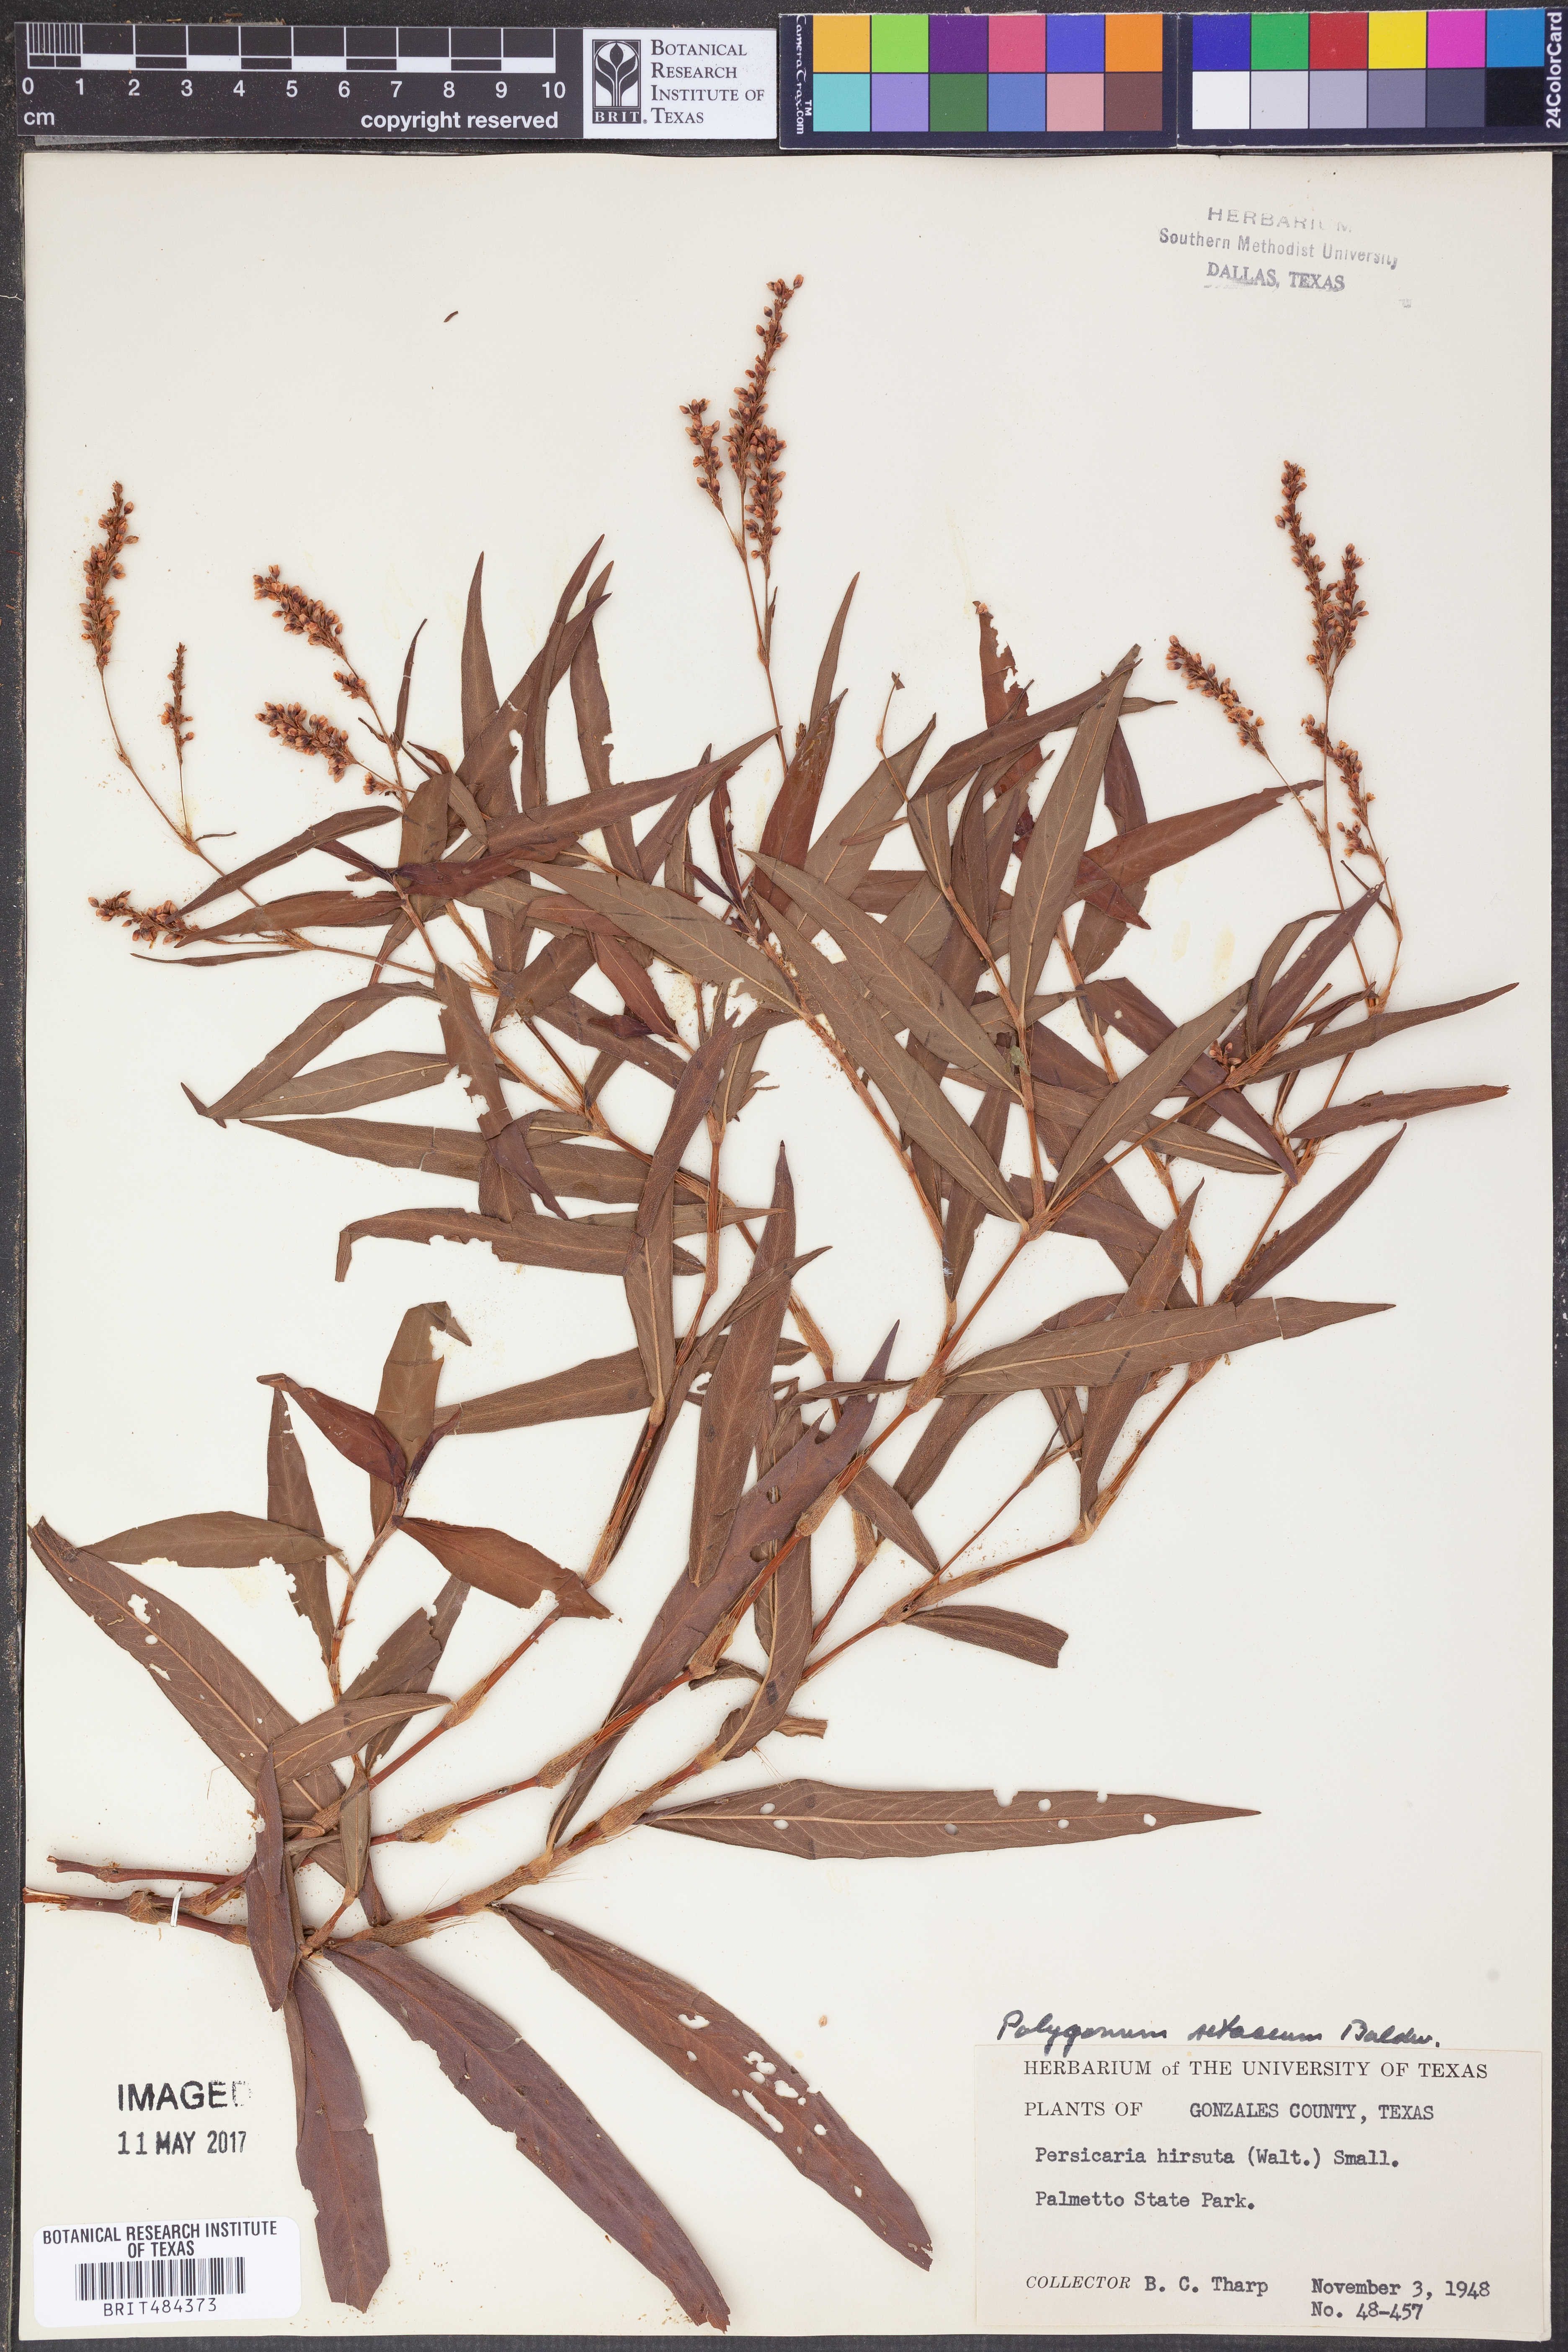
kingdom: Plantae
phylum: Tracheophyta
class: Magnoliopsida
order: Caryophyllales
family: Polygonaceae
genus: Persicaria
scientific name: Persicaria hirsuta
